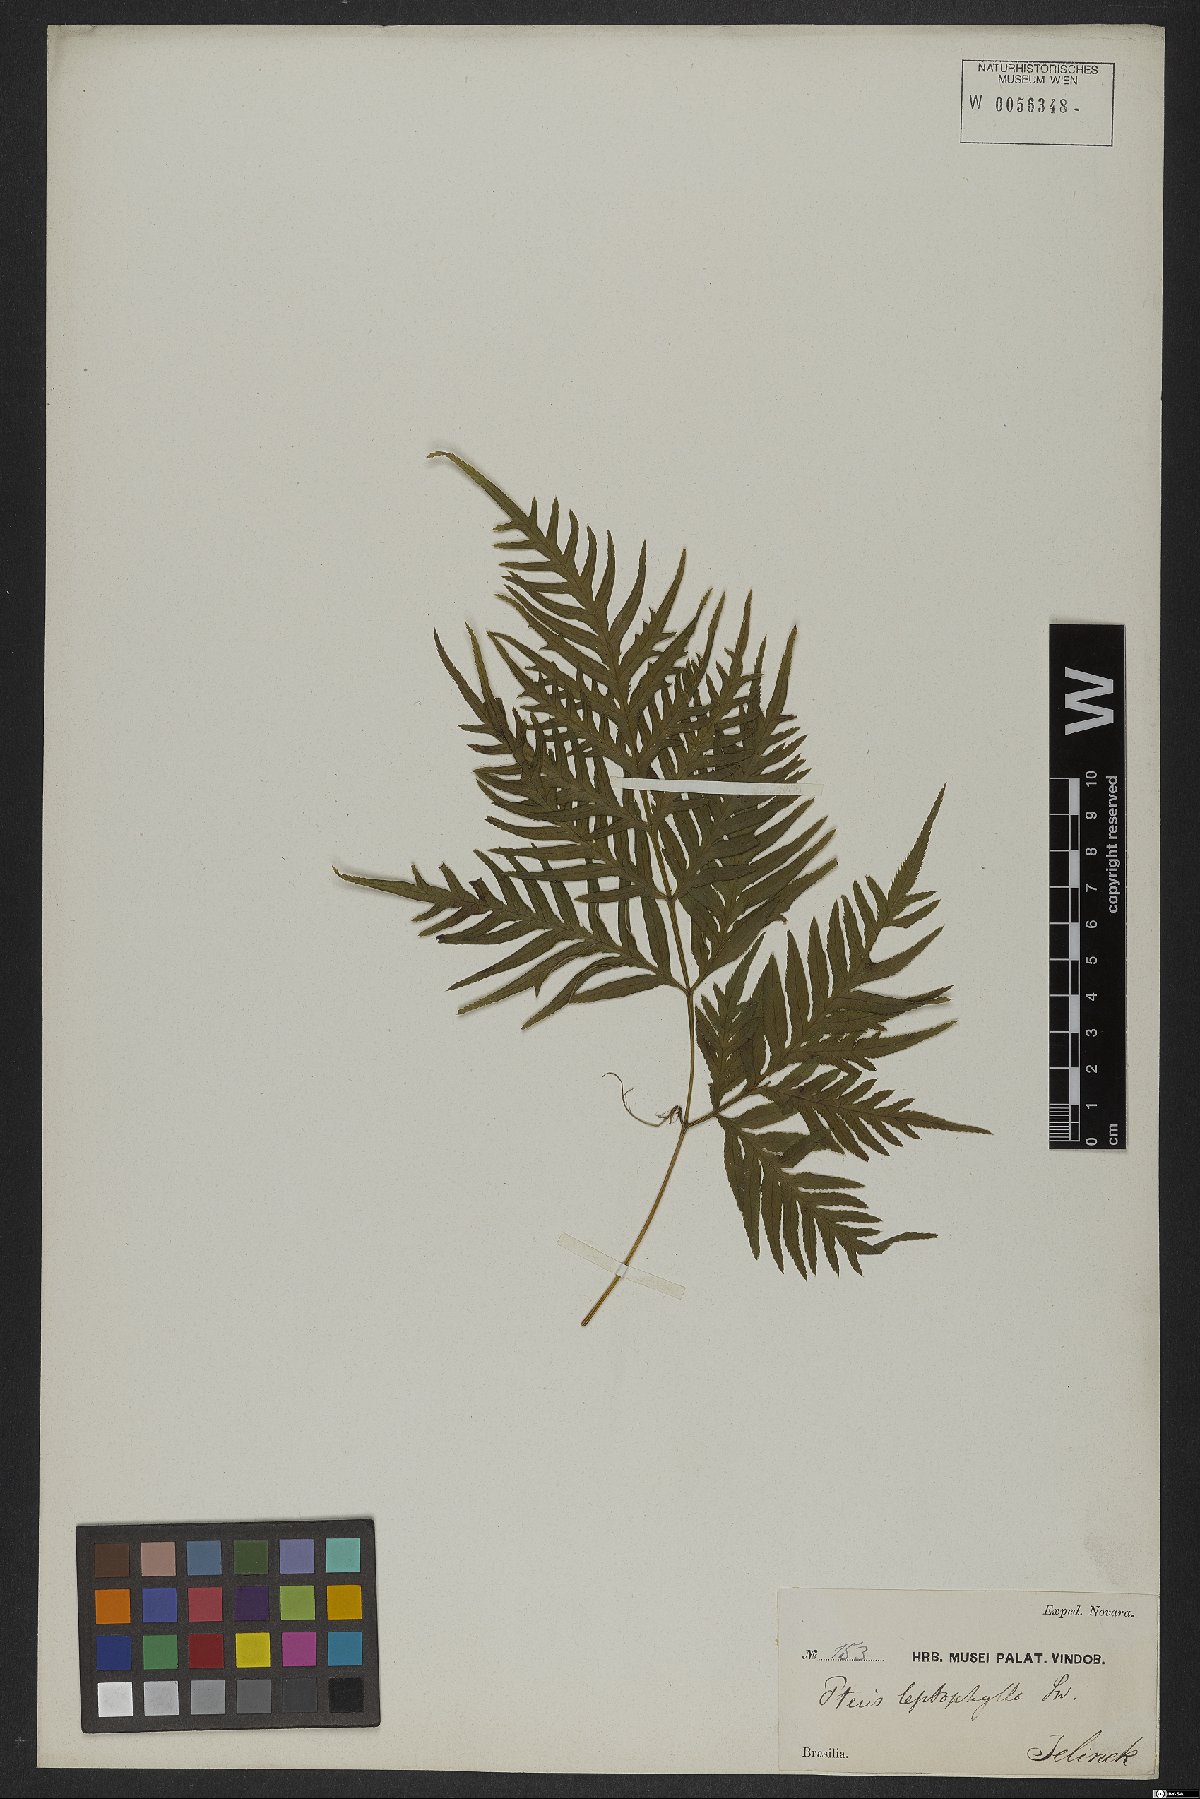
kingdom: Plantae
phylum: Tracheophyta
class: Polypodiopsida
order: Polypodiales
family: Pteridaceae
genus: Pteris
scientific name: Pteris leptophylla
